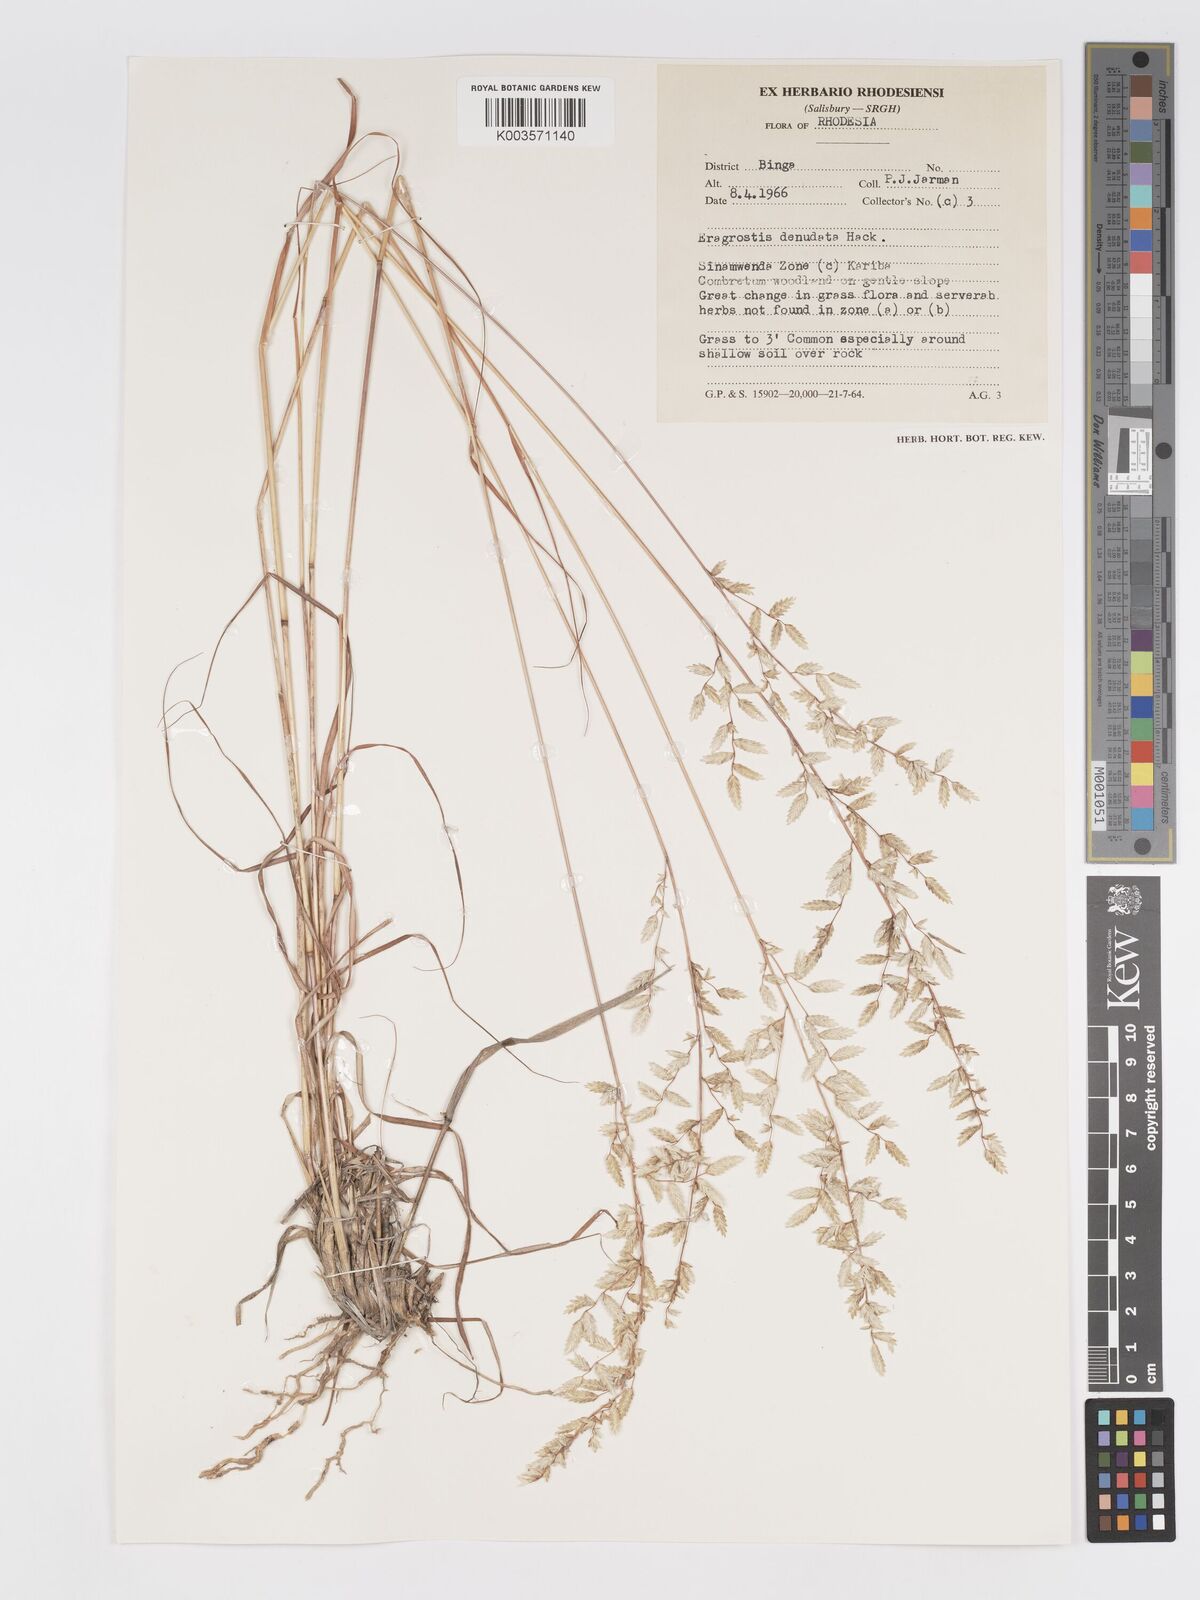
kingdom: Plantae
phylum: Tracheophyta
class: Liliopsida
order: Poales
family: Poaceae
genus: Eragrostis
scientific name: Eragrostis nindensis
